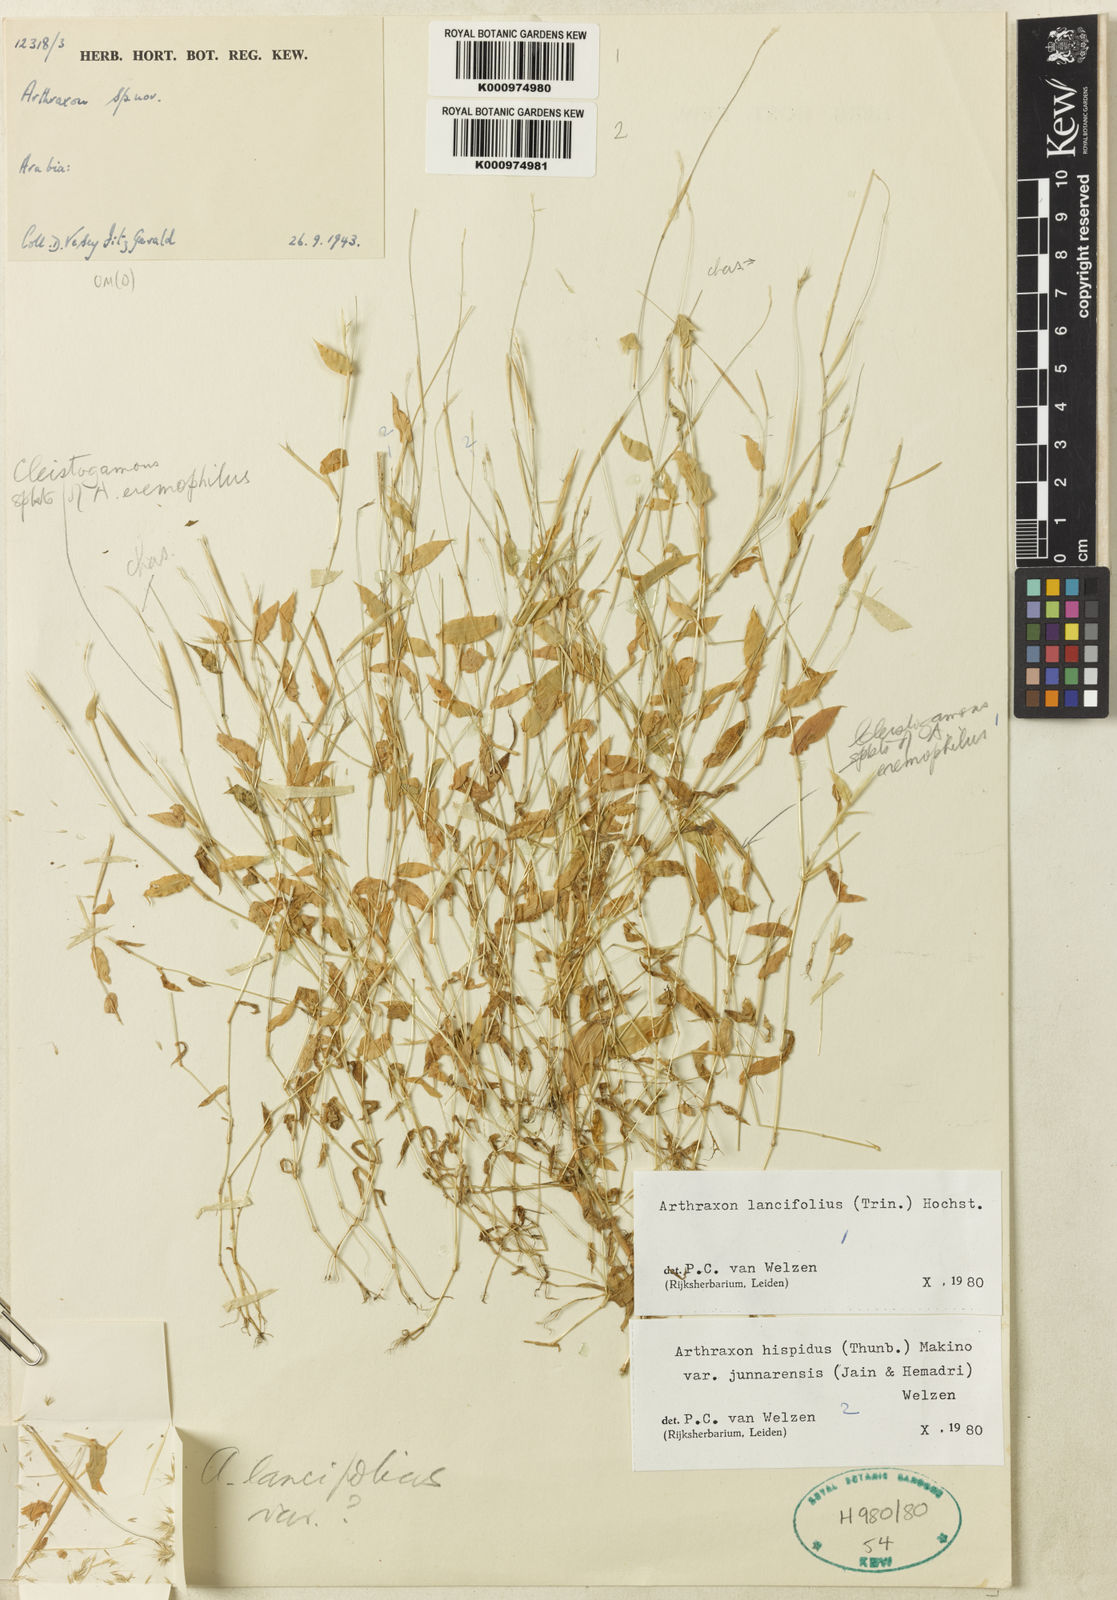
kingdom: Plantae
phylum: Tracheophyta
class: Liliopsida
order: Poales
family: Poaceae
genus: Arthraxon
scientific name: Arthraxon lancifolius
